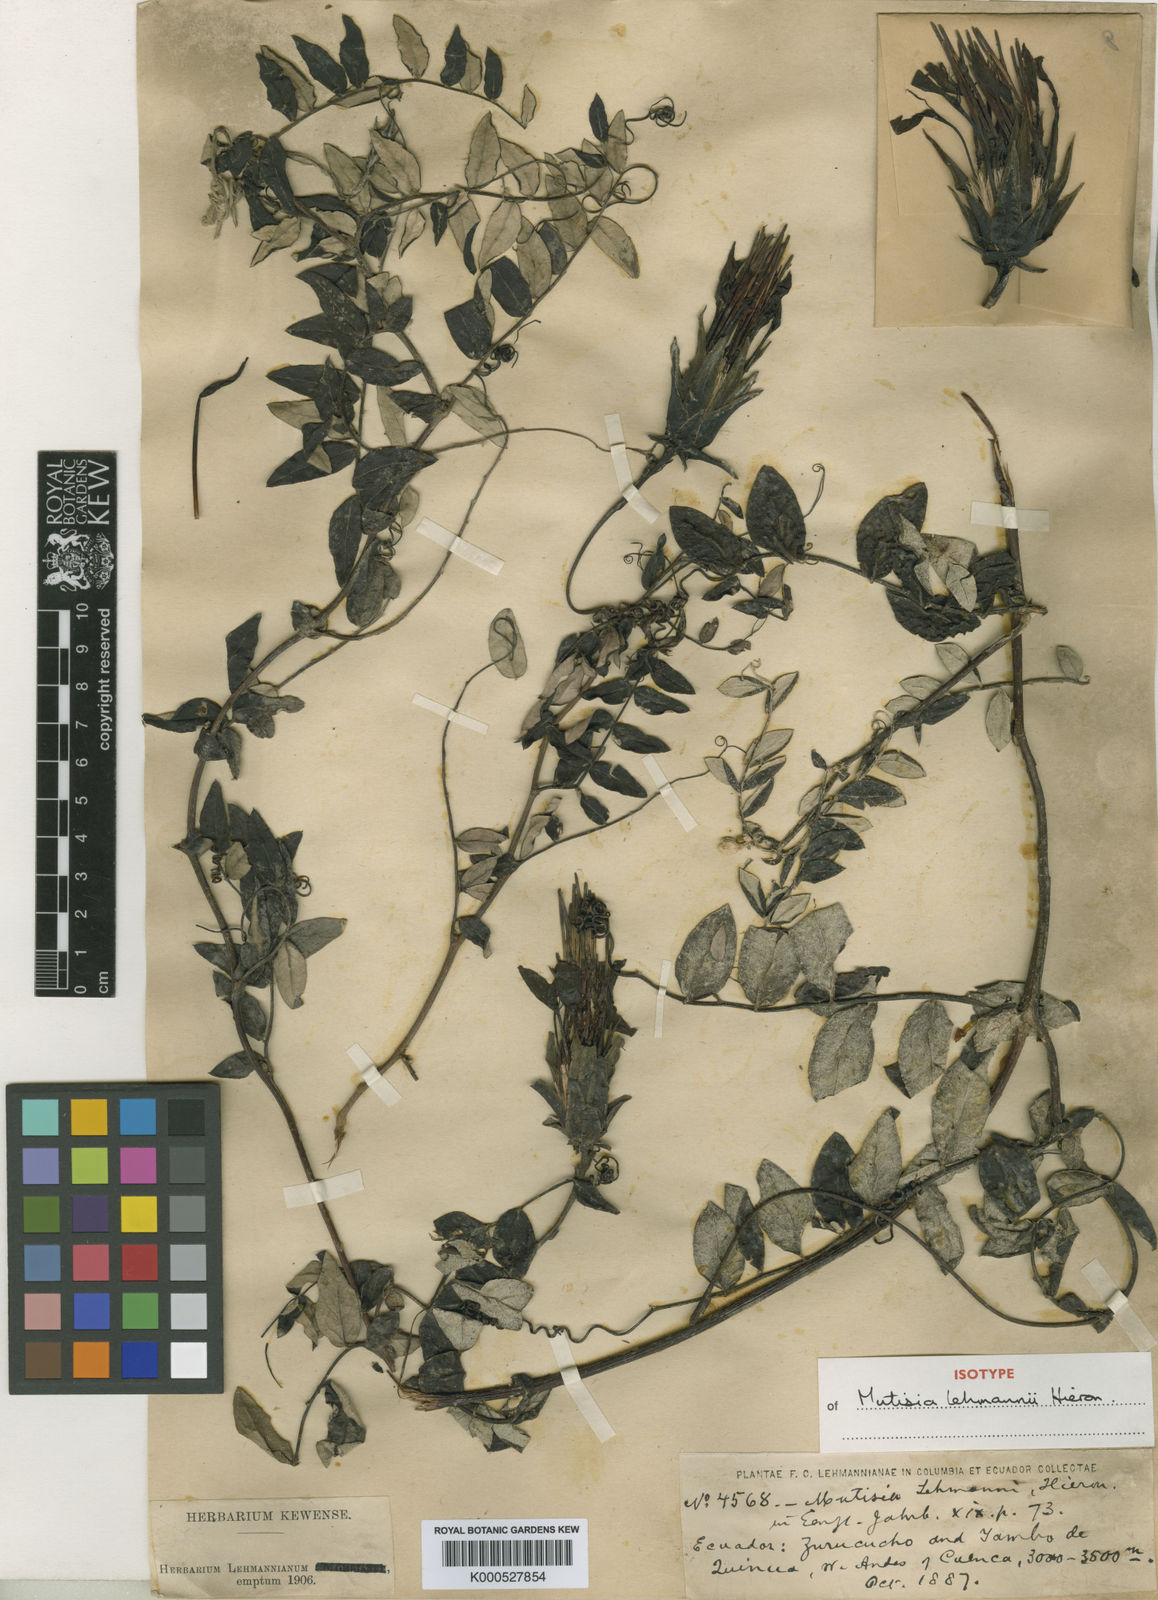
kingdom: Plantae
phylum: Tracheophyta
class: Magnoliopsida
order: Asterales
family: Asteraceae
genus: Mutisia
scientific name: Mutisia lehmannii
